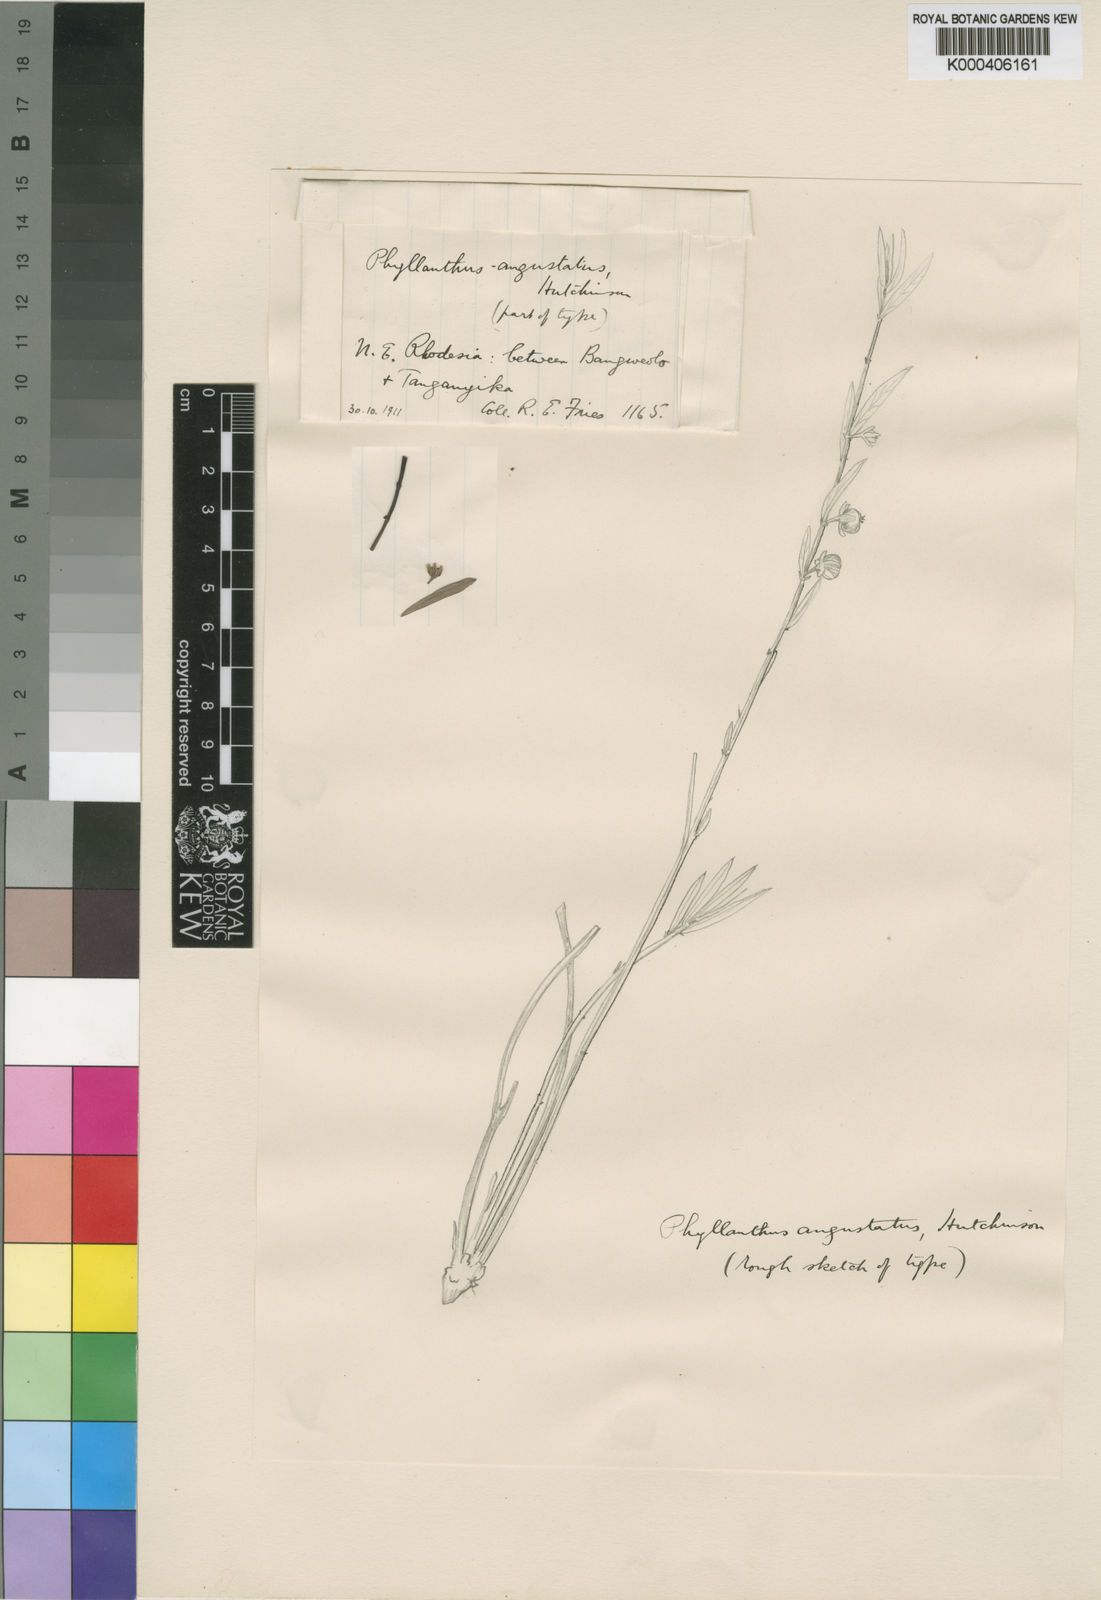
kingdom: Plantae
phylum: Tracheophyta
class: Magnoliopsida
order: Malpighiales
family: Phyllanthaceae
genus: Phyllanthus
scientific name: Phyllanthus friesii
